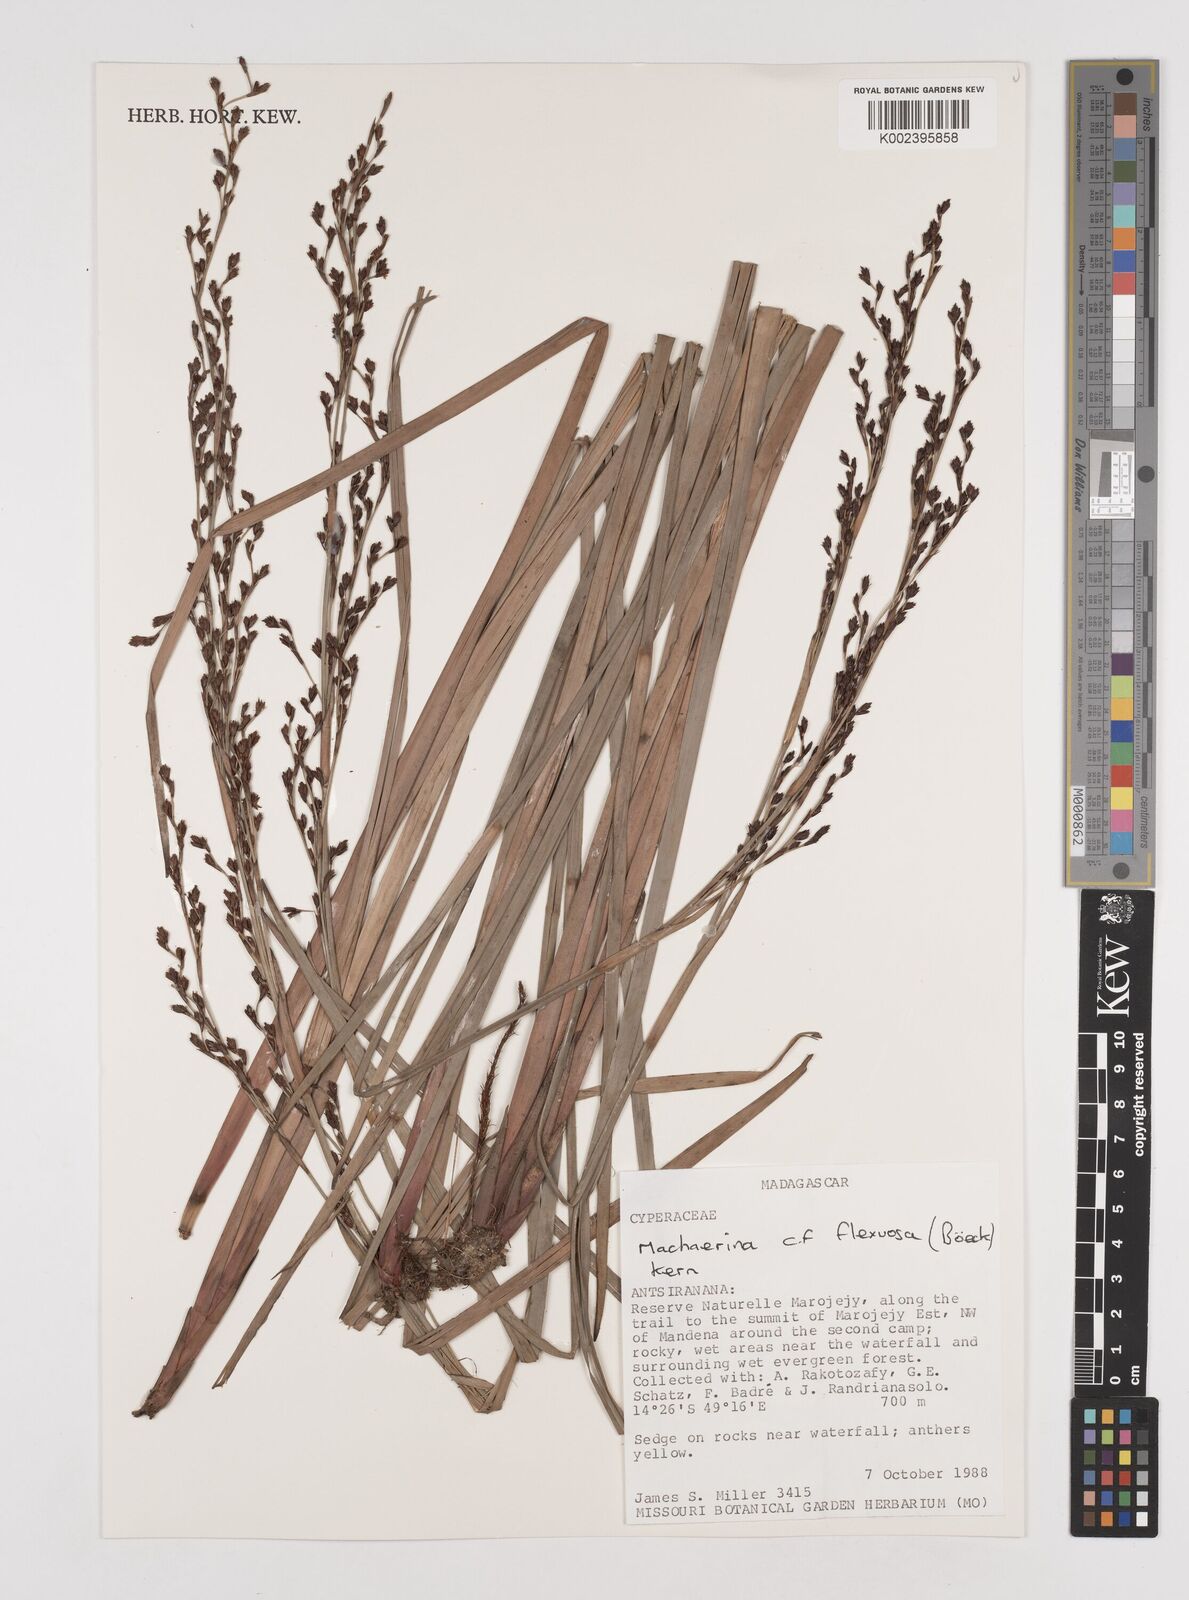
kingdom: Plantae
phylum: Tracheophyta
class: Liliopsida
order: Poales
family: Cyperaceae
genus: Machaerina
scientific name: Machaerina flexuosa
